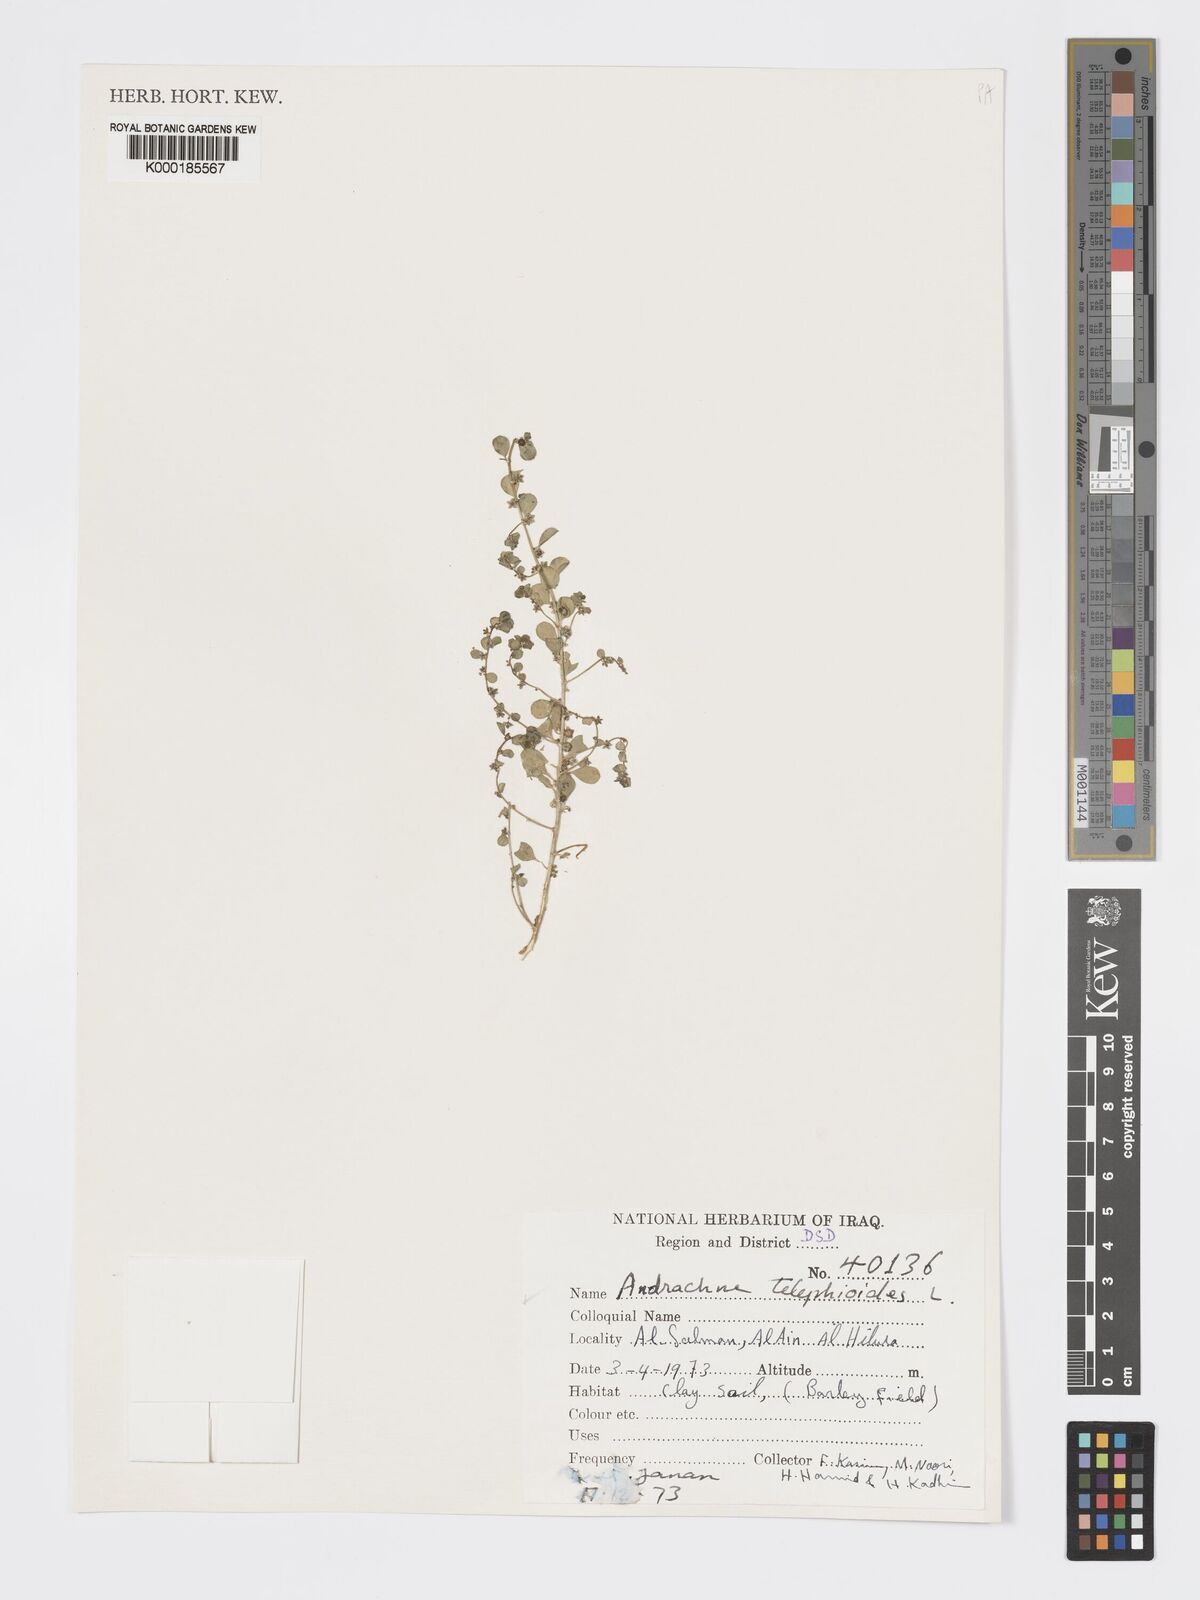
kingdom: Plantae
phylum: Tracheophyta
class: Magnoliopsida
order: Malpighiales
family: Phyllanthaceae
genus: Andrachne
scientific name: Andrachne telephioides
